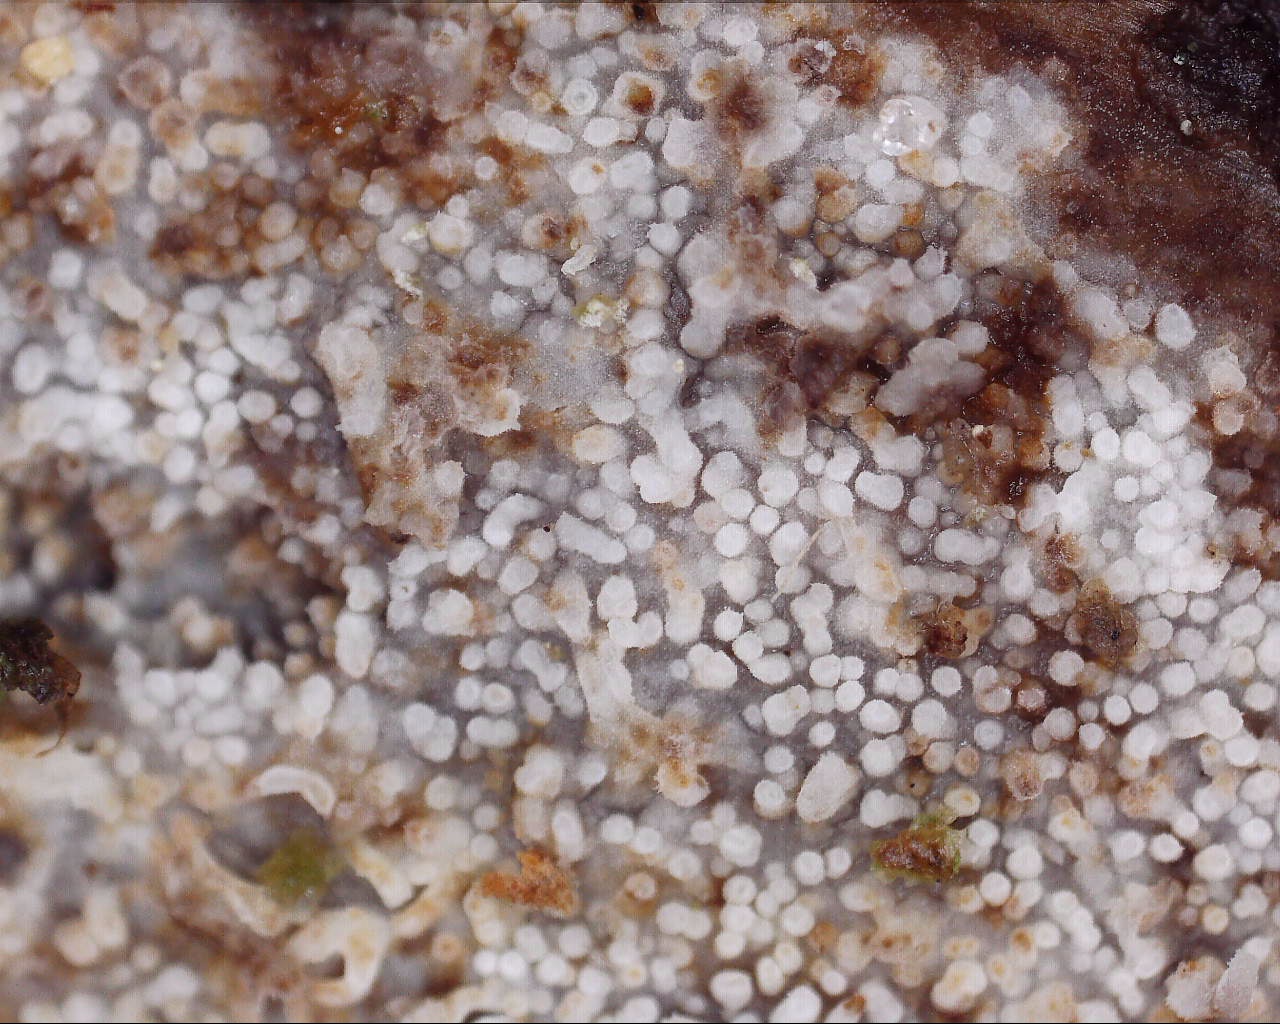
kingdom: Fungi
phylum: Basidiomycota
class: Agaricomycetes
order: Hymenochaetales
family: Rickenellaceae
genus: Resinicium
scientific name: Resinicium bicolor
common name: almindelig vokstand
